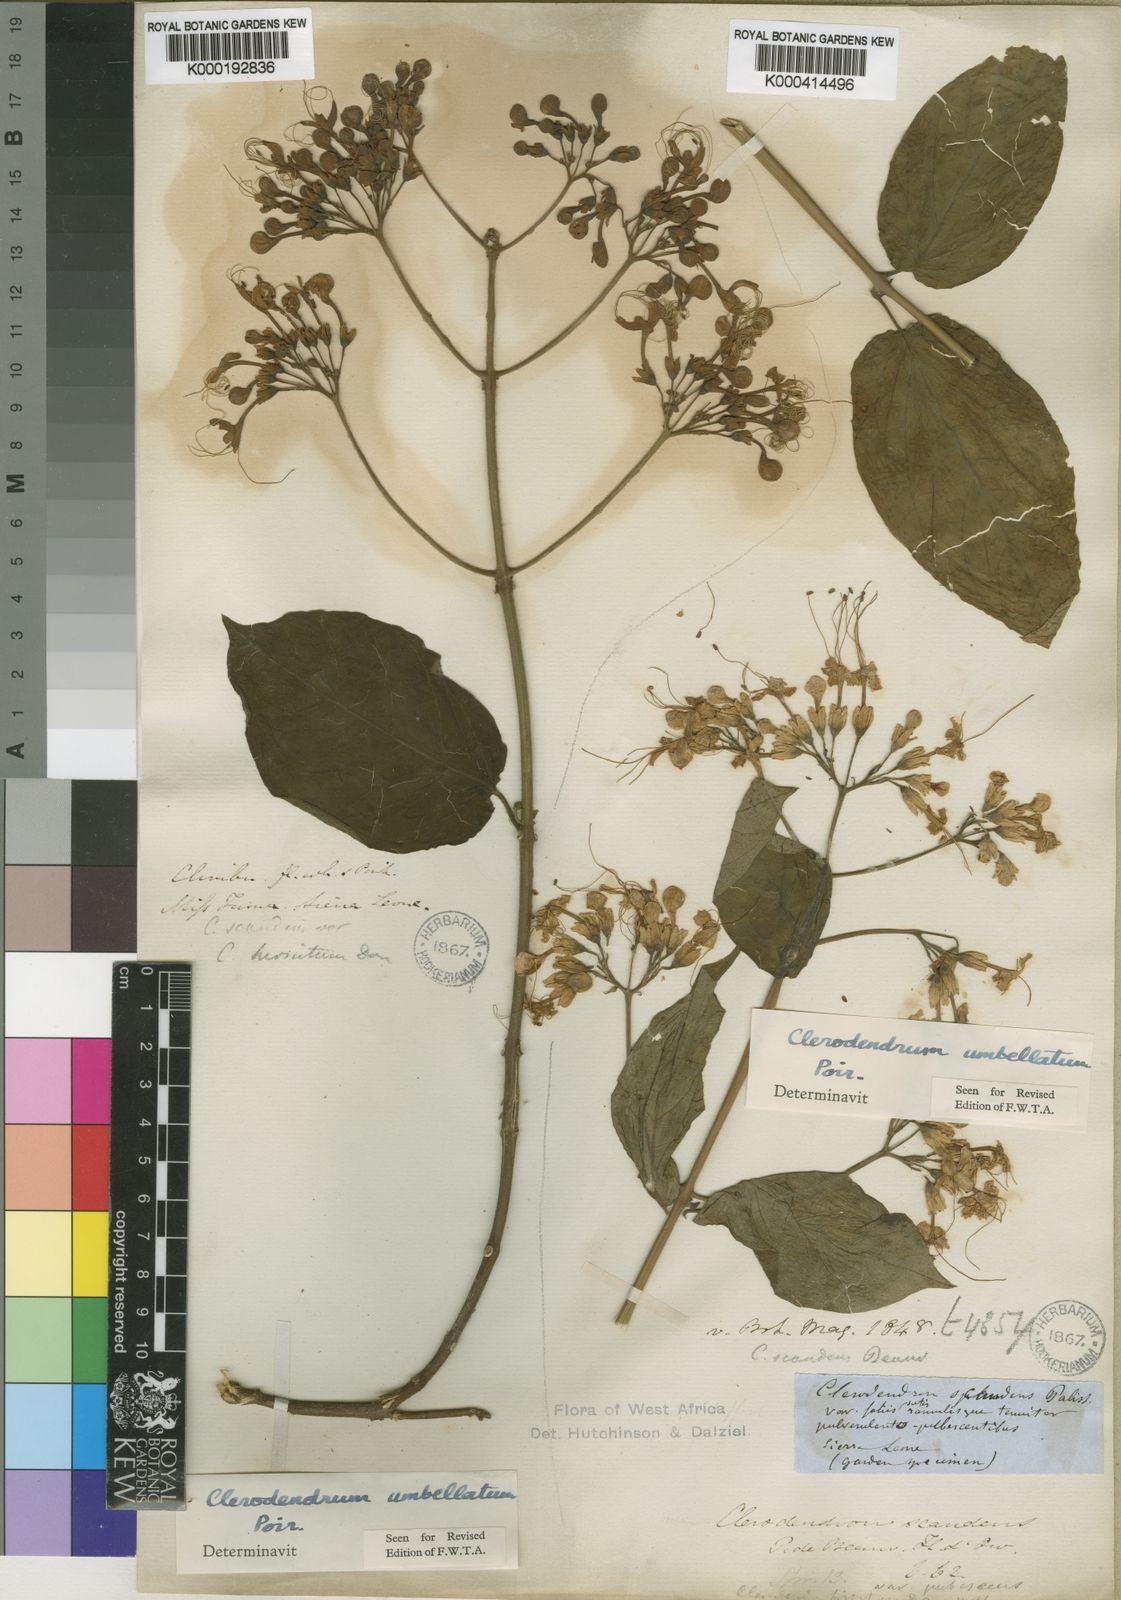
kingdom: Plantae
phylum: Tracheophyta
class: Magnoliopsida
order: Lamiales
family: Lamiaceae
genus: Clerodendrum
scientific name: Clerodendrum umbellatum
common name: Umbel clerodendrum
